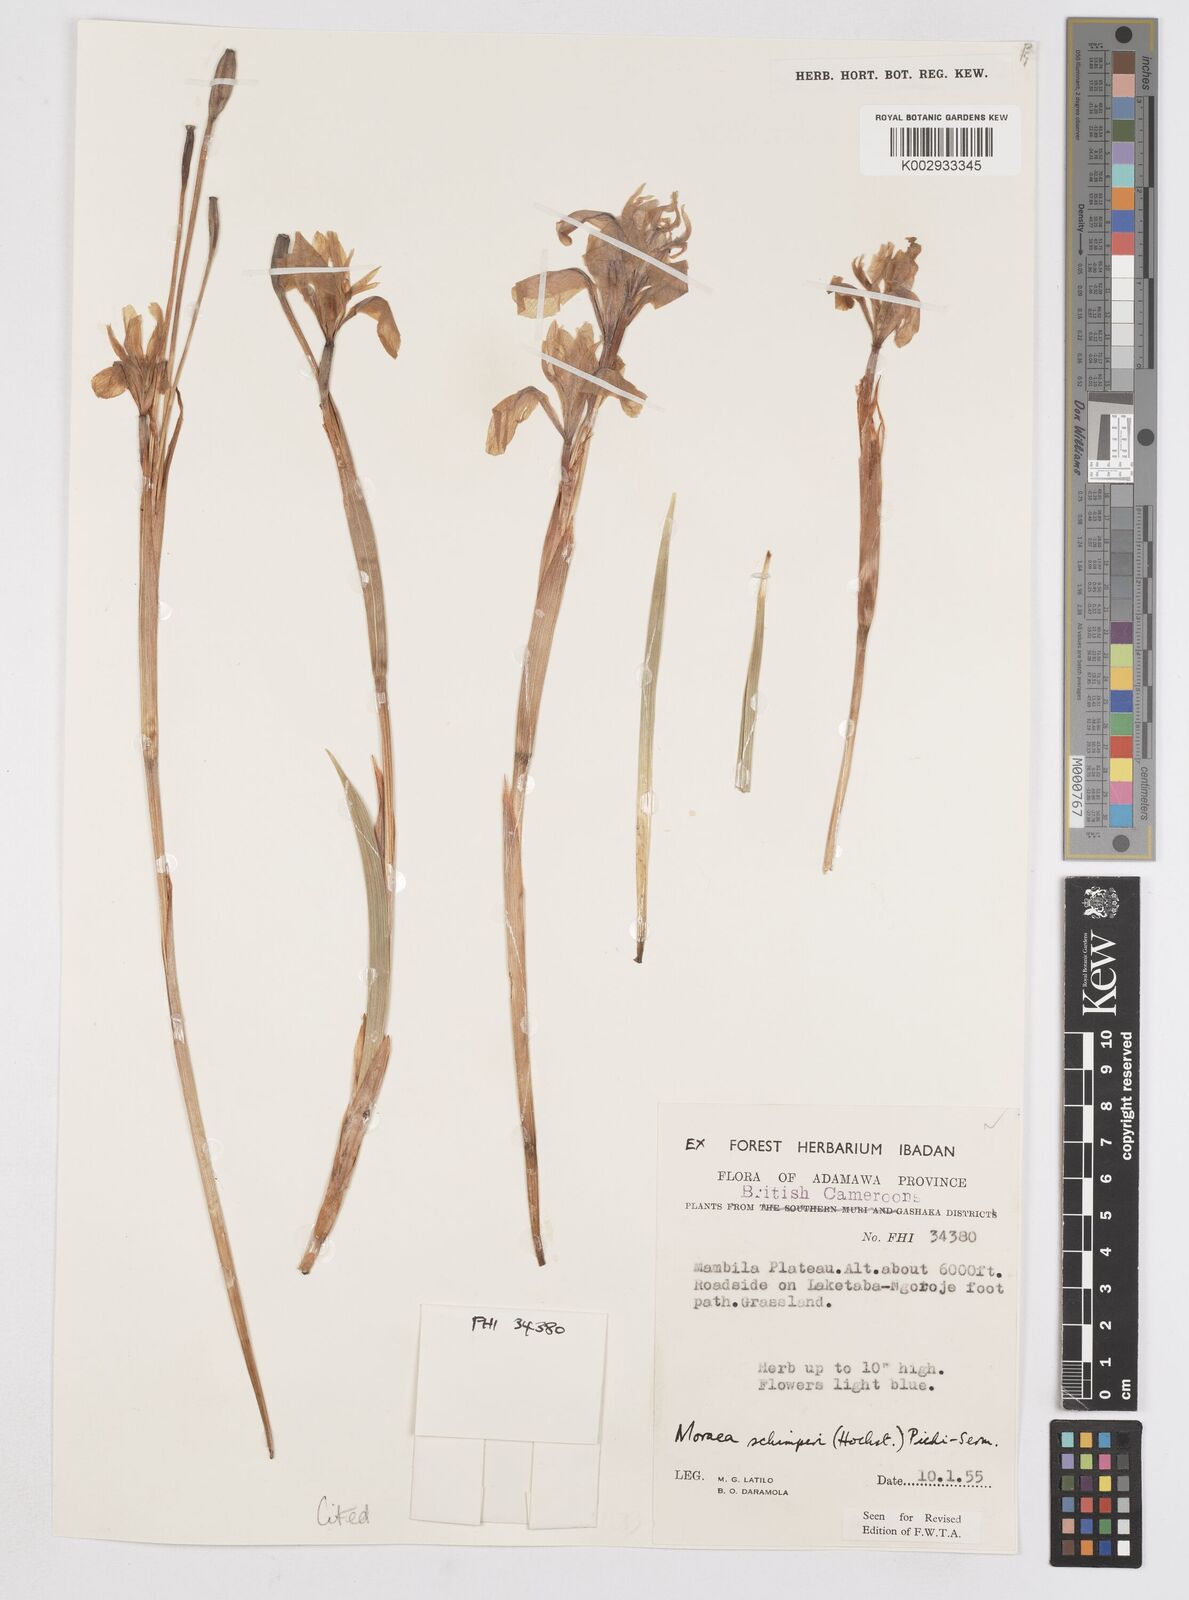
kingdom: Plantae
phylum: Tracheophyta
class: Liliopsida
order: Asparagales
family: Iridaceae
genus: Moraea
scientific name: Moraea schimperi
